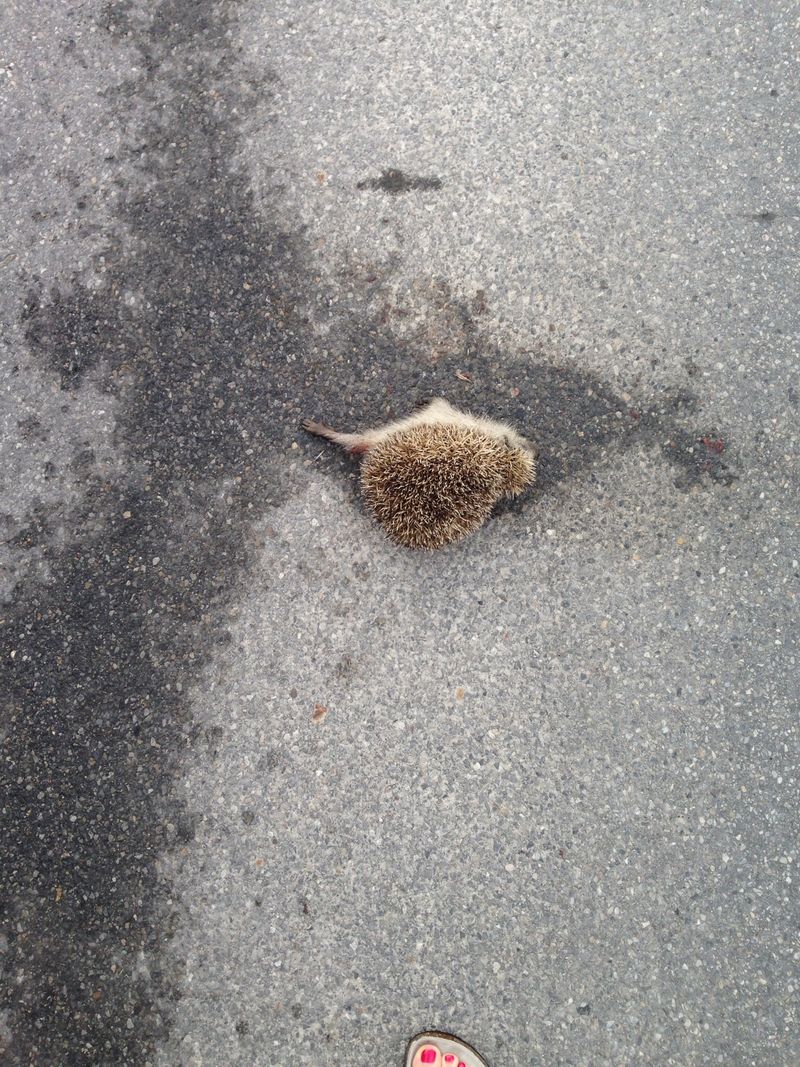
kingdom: Animalia
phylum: Chordata
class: Mammalia
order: Erinaceomorpha
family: Erinaceidae
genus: Erinaceus
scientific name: Erinaceus
